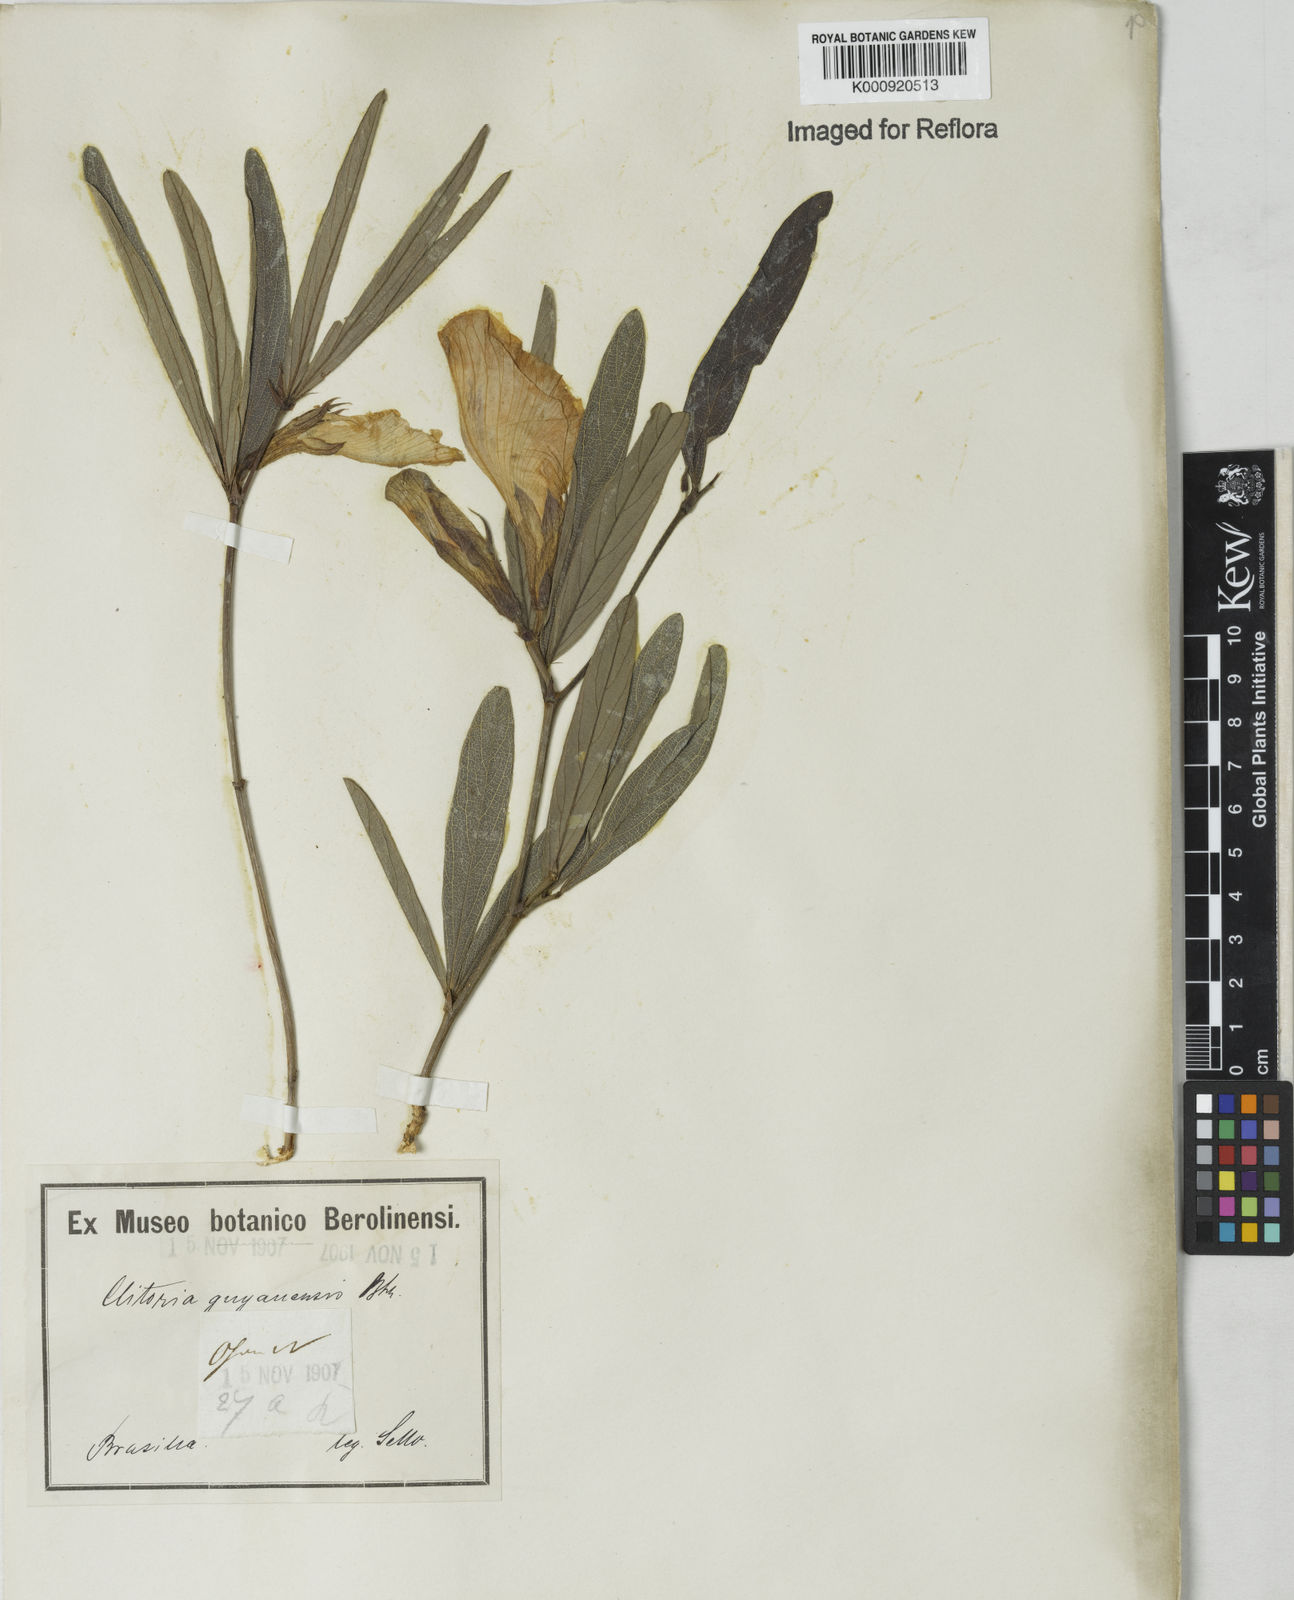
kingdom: Plantae
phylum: Tracheophyta
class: Magnoliopsida
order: Fabales
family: Fabaceae
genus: Clitoria
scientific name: Clitoria guianensis
